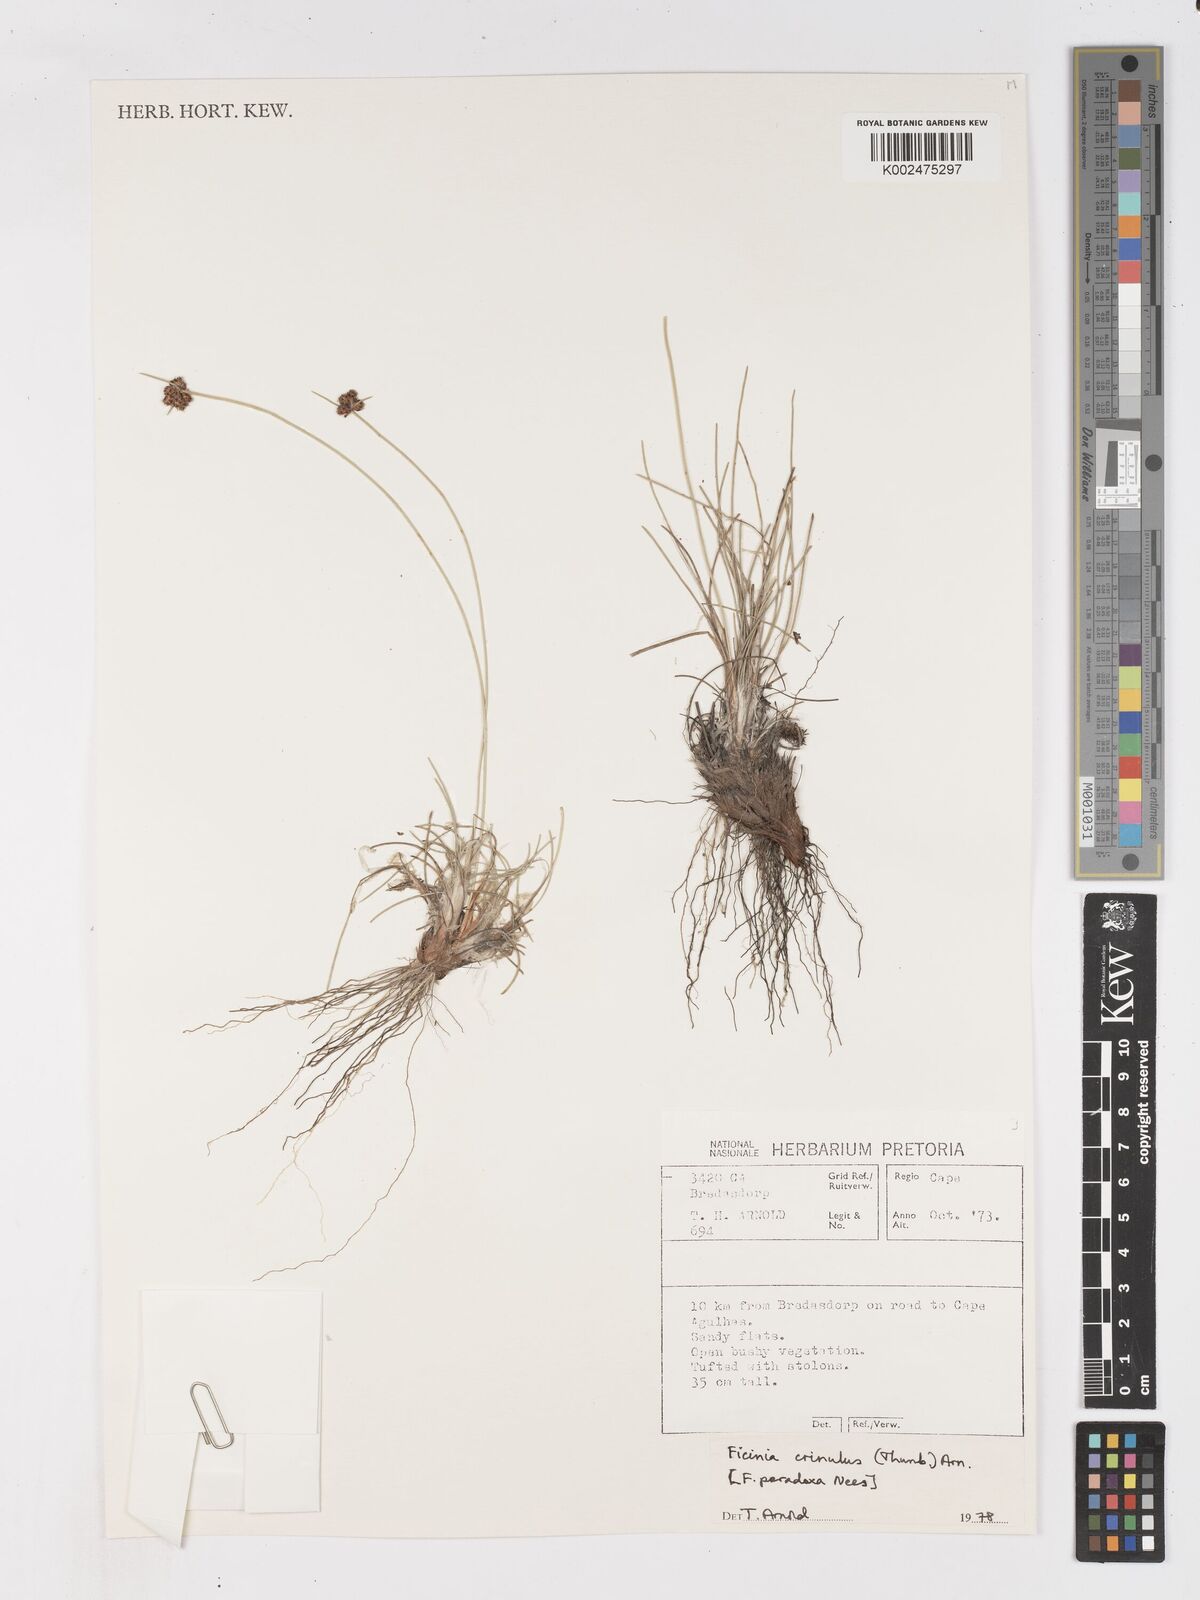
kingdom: Plantae
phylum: Tracheophyta
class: Liliopsida
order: Poales
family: Cyperaceae
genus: Ficinia
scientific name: Ficinia paradoxa
